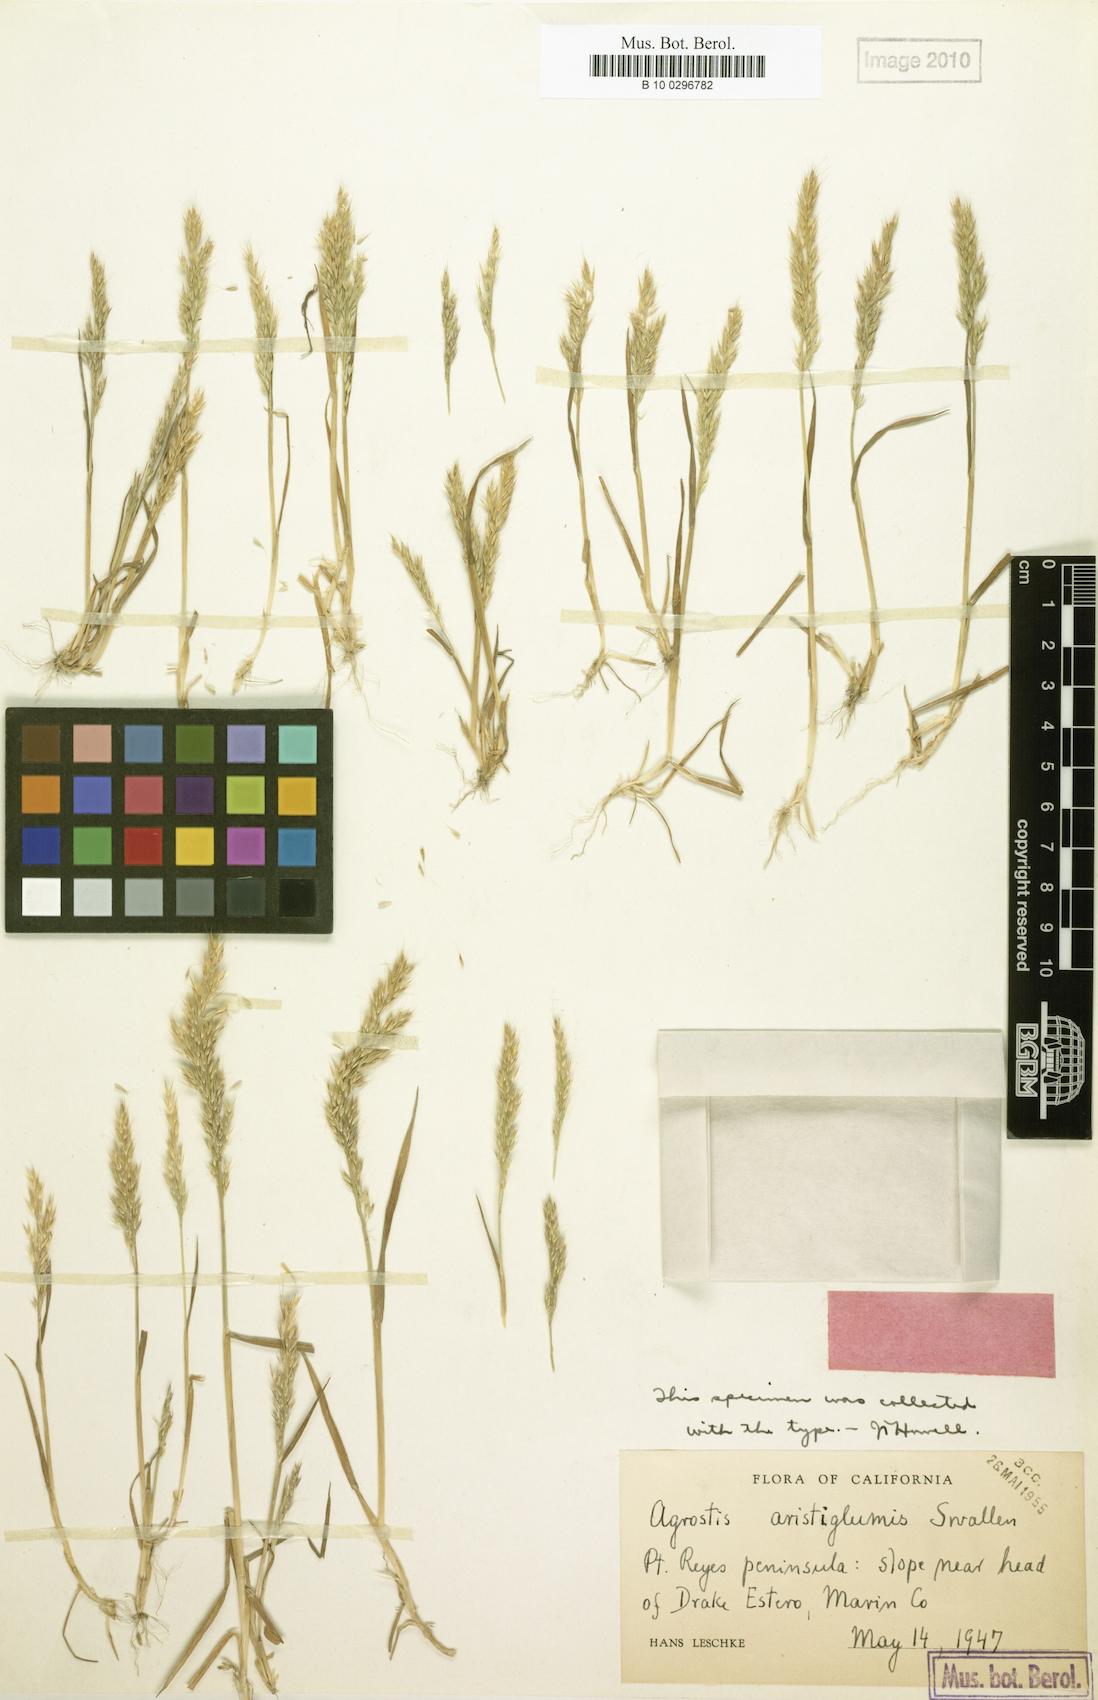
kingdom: Plantae
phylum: Tracheophyta
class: Liliopsida
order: Poales
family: Poaceae
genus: Agrostis
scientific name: Agrostis microphylla
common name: Small-leaf bent
